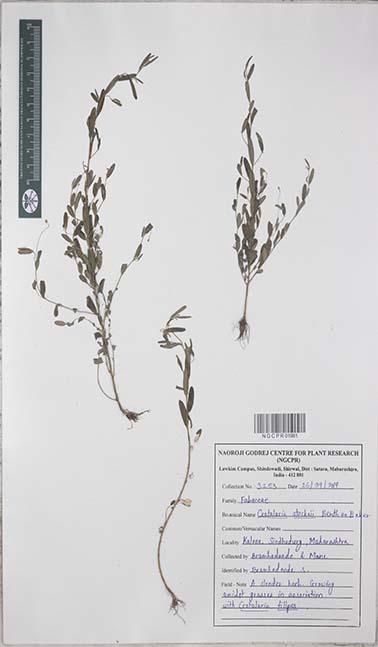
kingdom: Plantae
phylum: Tracheophyta
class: Magnoliopsida
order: Fabales
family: Fabaceae
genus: Crotalaria
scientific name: Crotalaria stocksii
